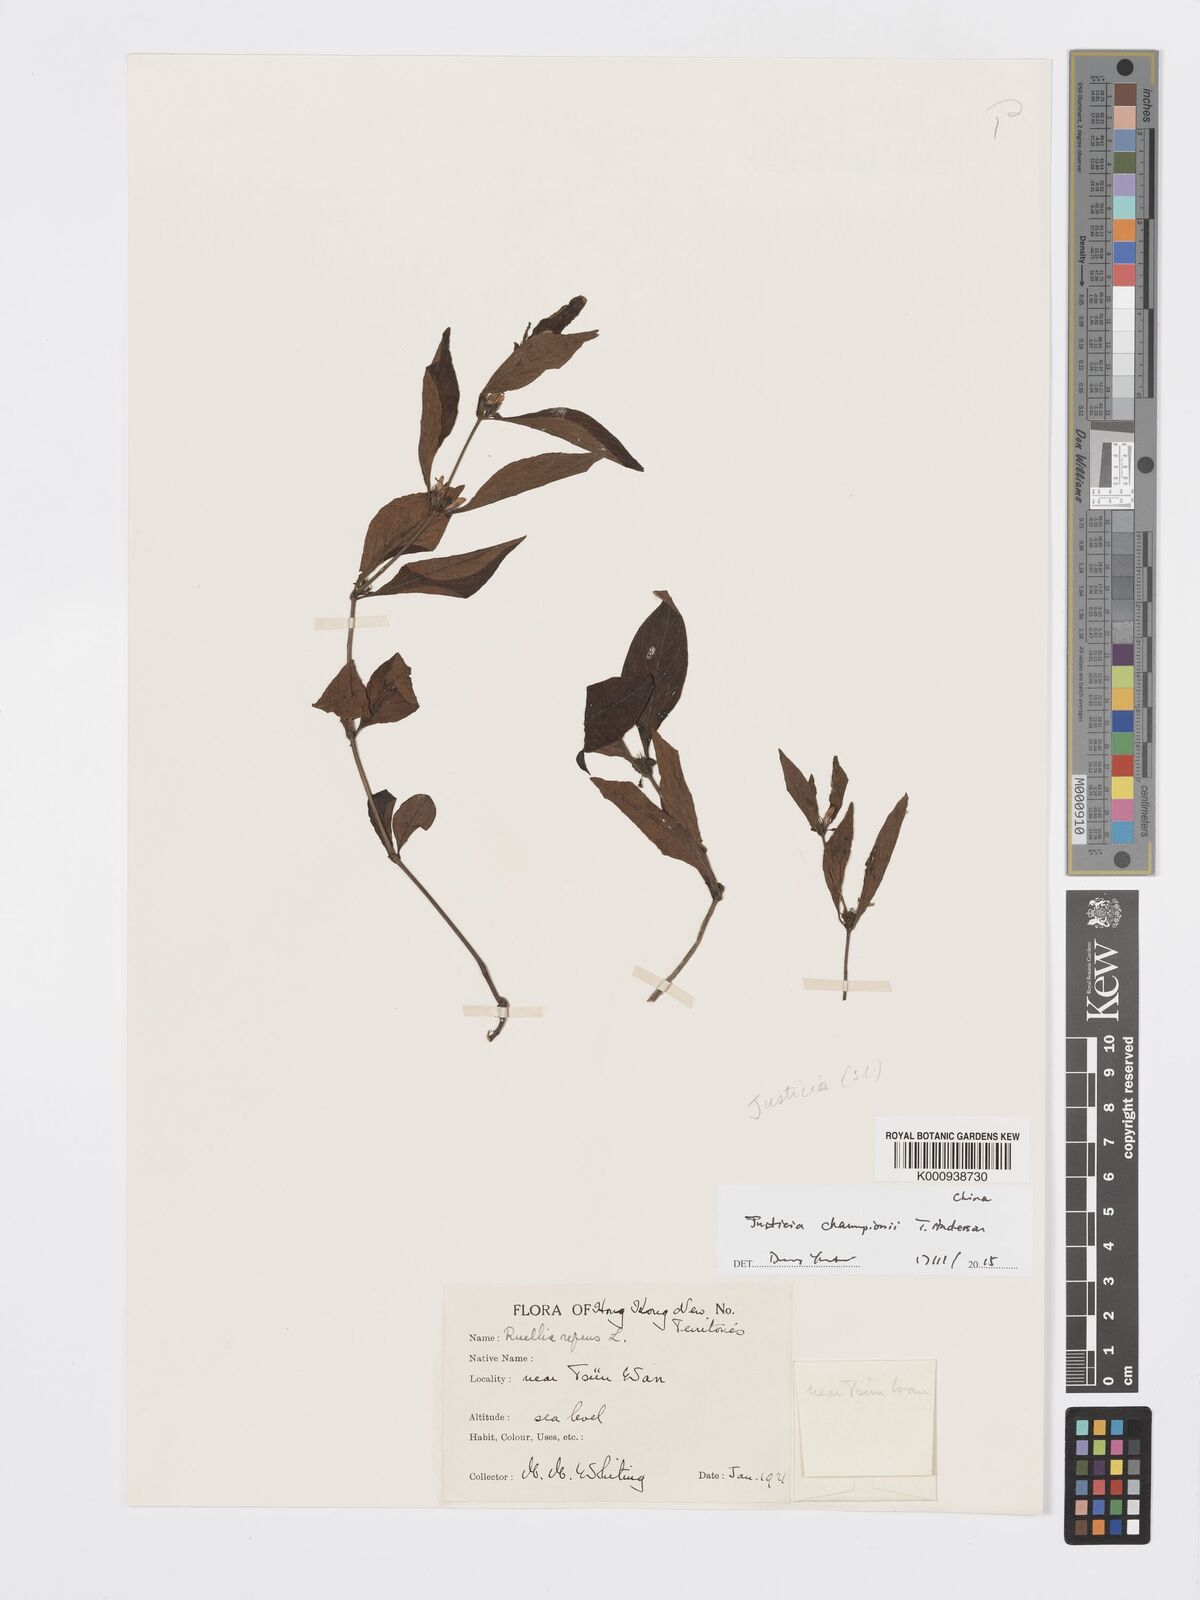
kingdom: Plantae
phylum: Tracheophyta
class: Magnoliopsida
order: Lamiales
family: Acanthaceae
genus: Justicia
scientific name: Justicia
